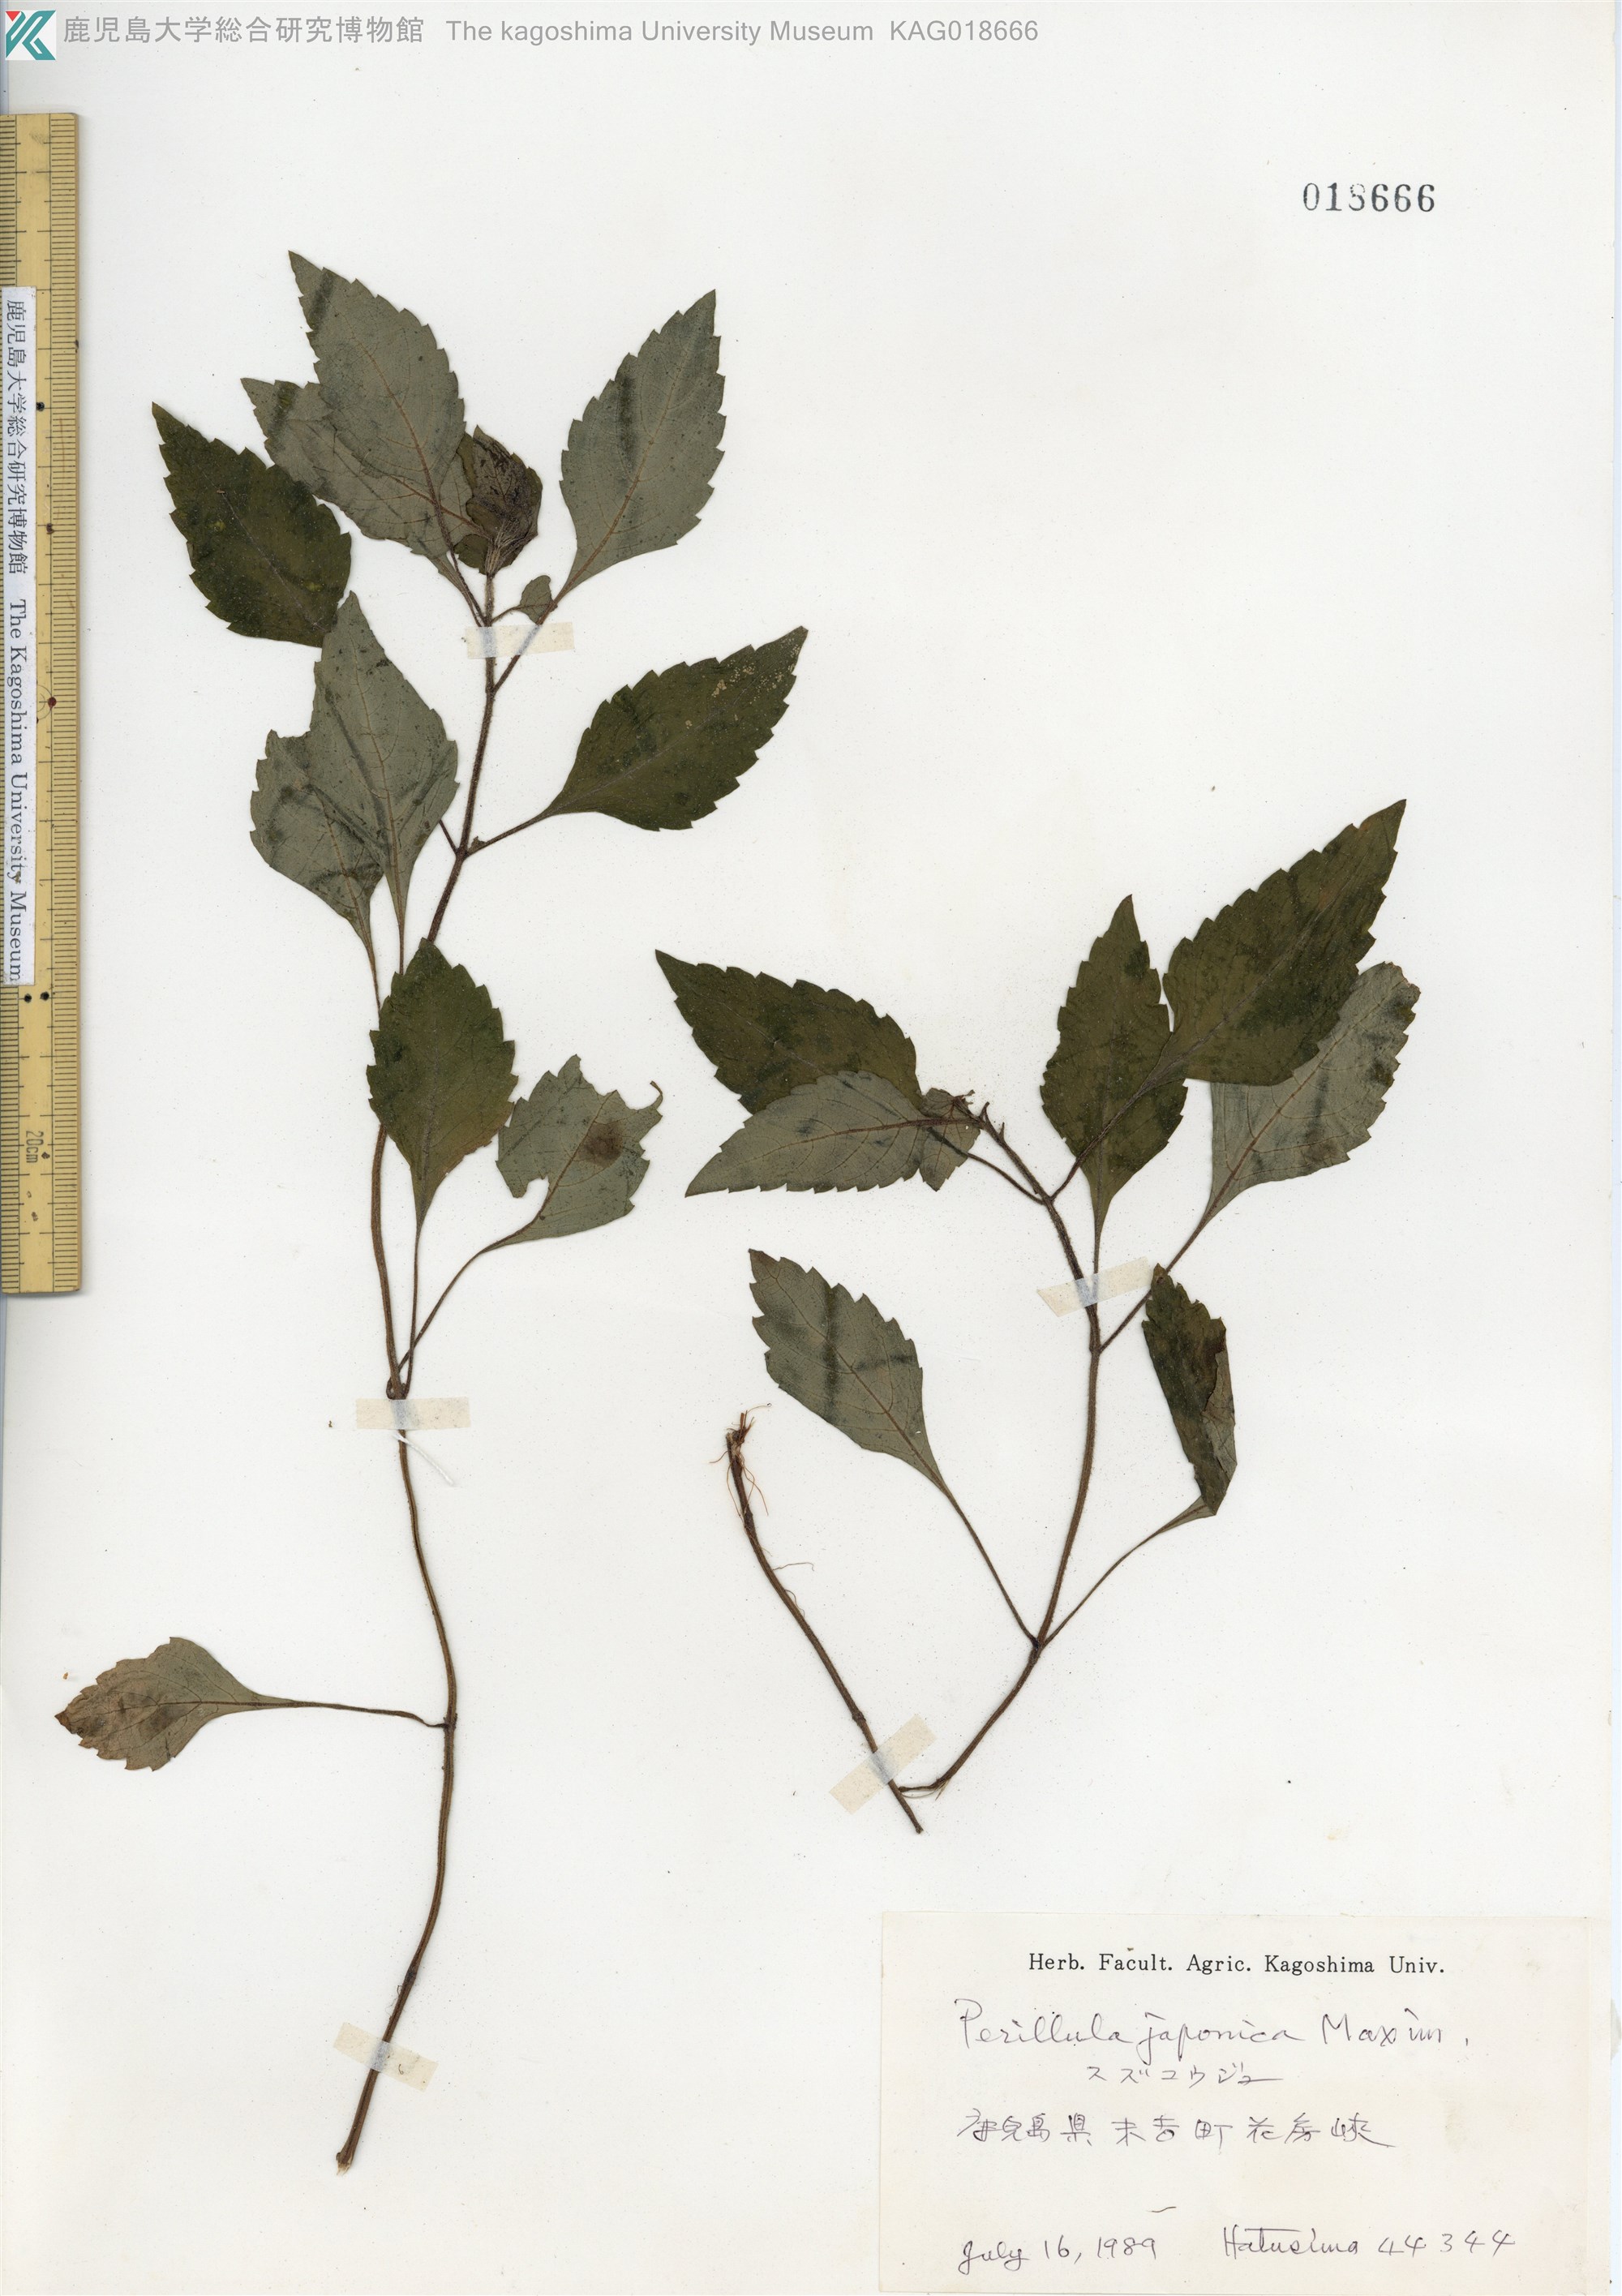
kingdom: Plantae
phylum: Tracheophyta
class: Magnoliopsida
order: Lamiales
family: Lamiaceae
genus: Perillula
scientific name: Perillula reptans
